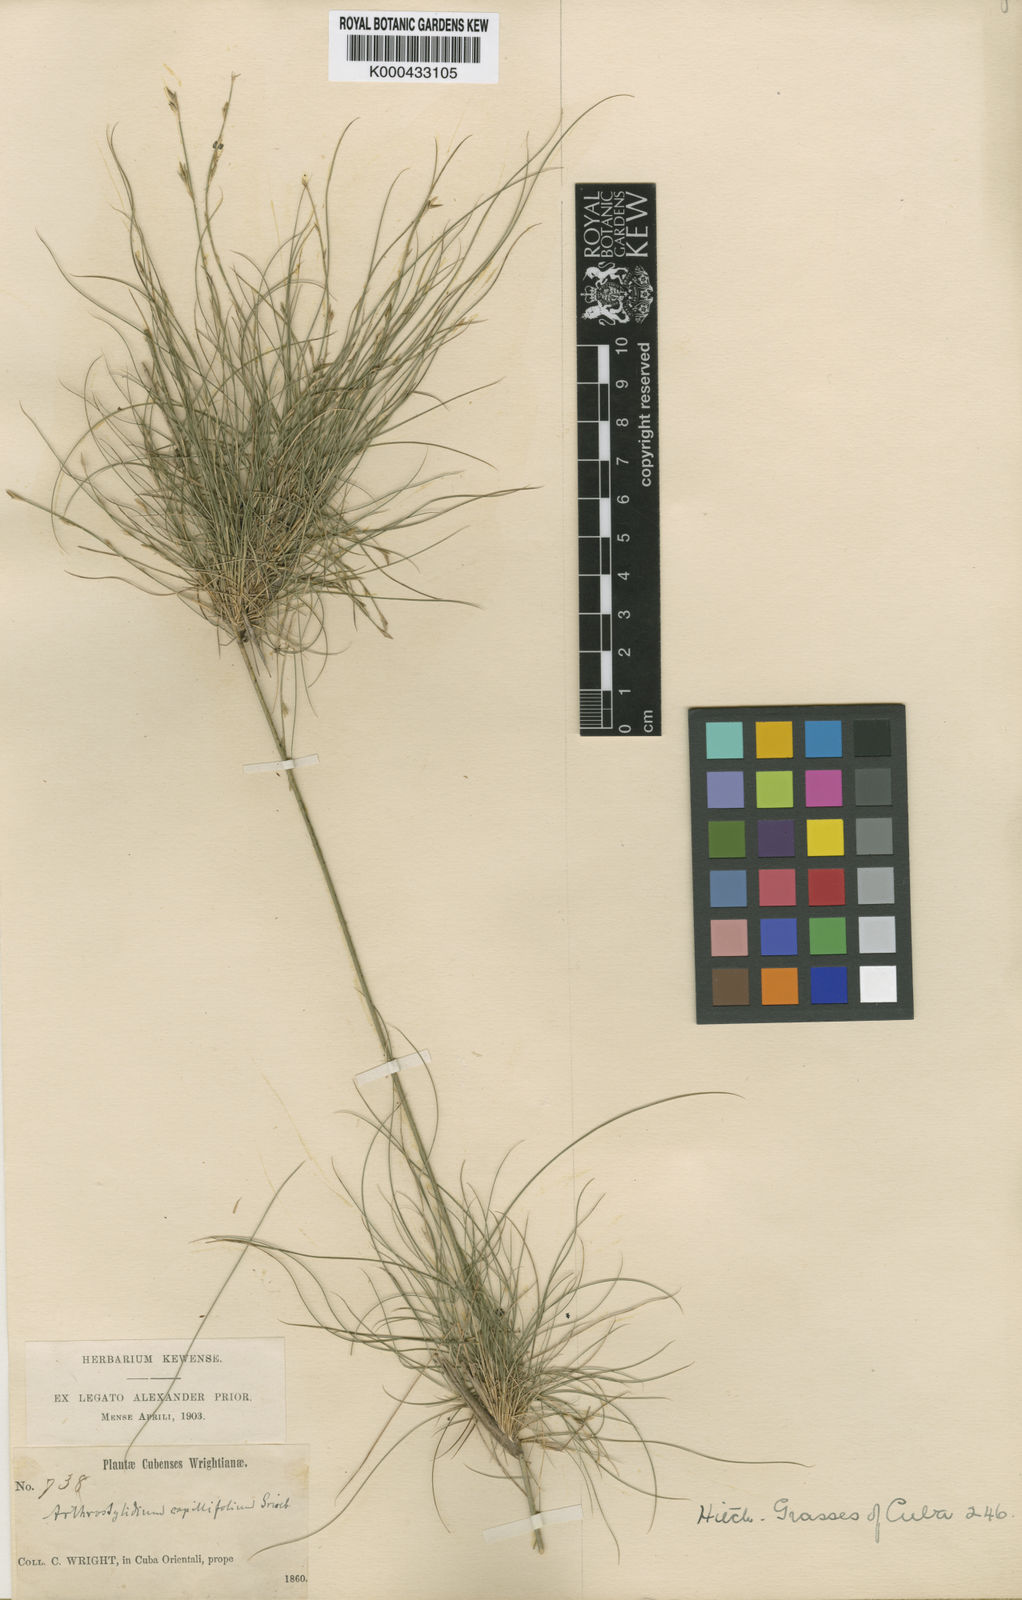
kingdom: Plantae
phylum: Tracheophyta
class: Liliopsida
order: Poales
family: Poaceae
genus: Tibisia
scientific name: Tibisia farcta
